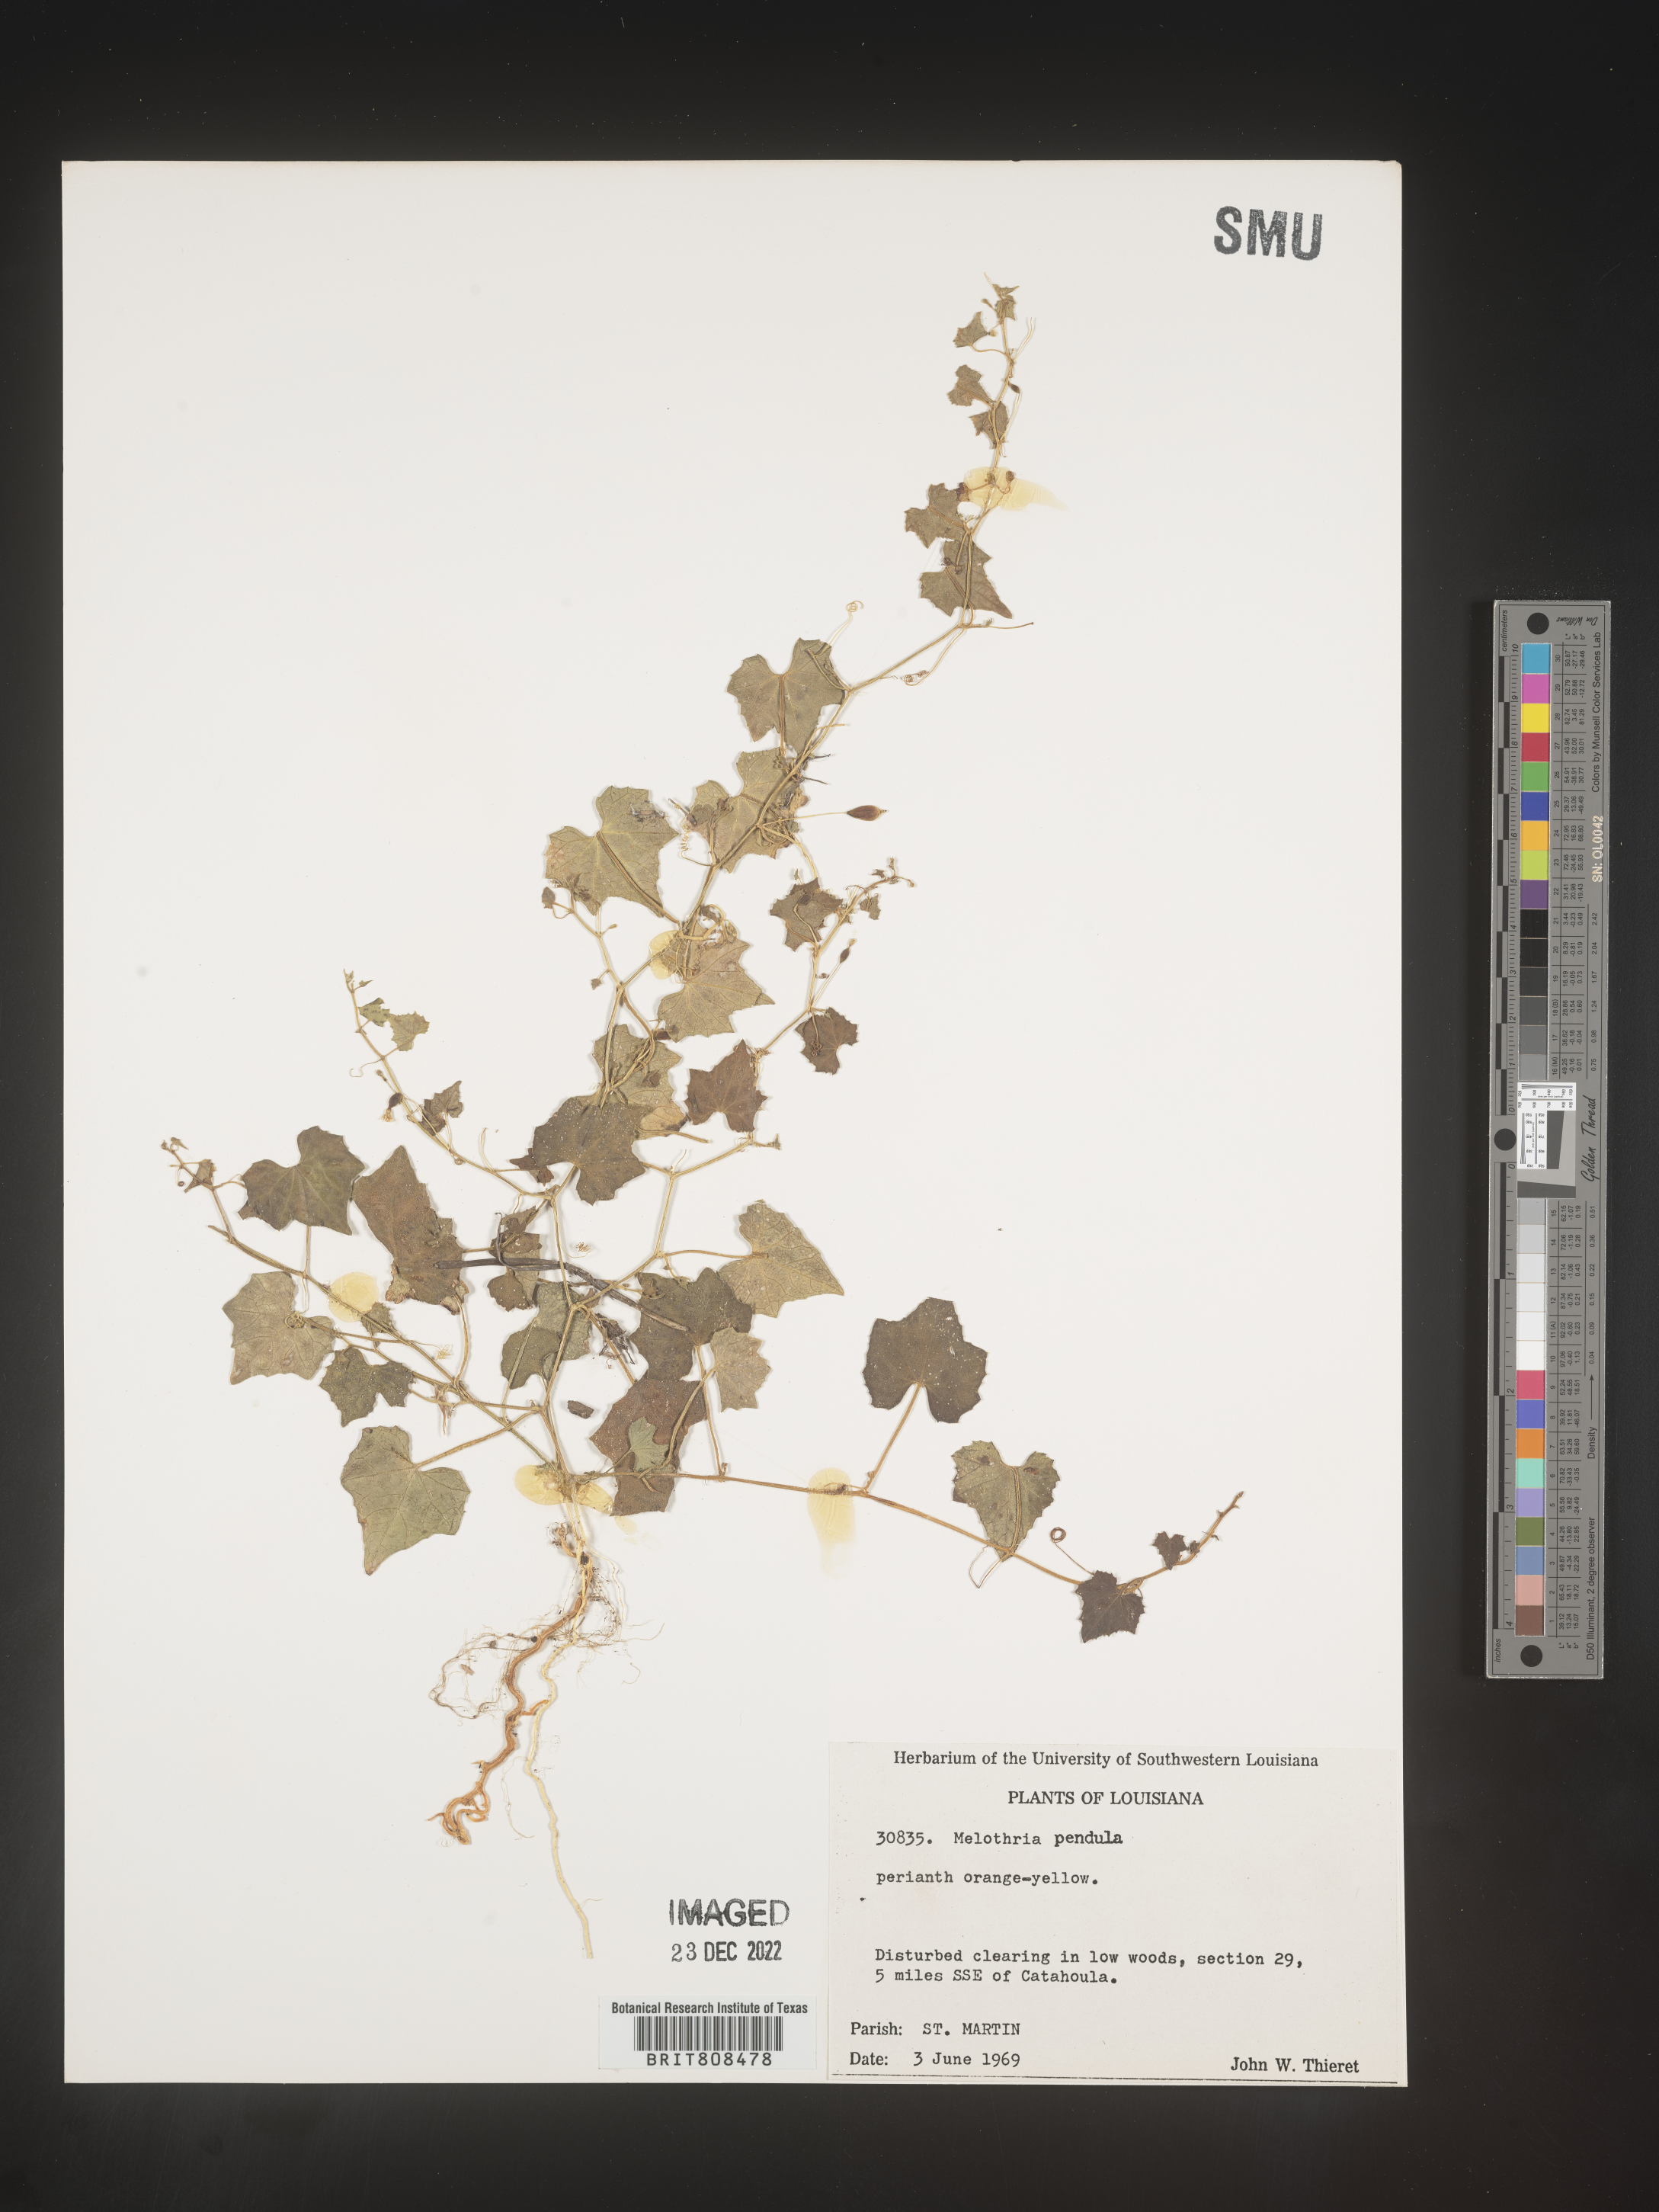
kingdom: Plantae
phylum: Tracheophyta
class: Magnoliopsida
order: Cucurbitales
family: Cucurbitaceae
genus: Melothria
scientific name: Melothria pendula
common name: Creeping-cucumber
